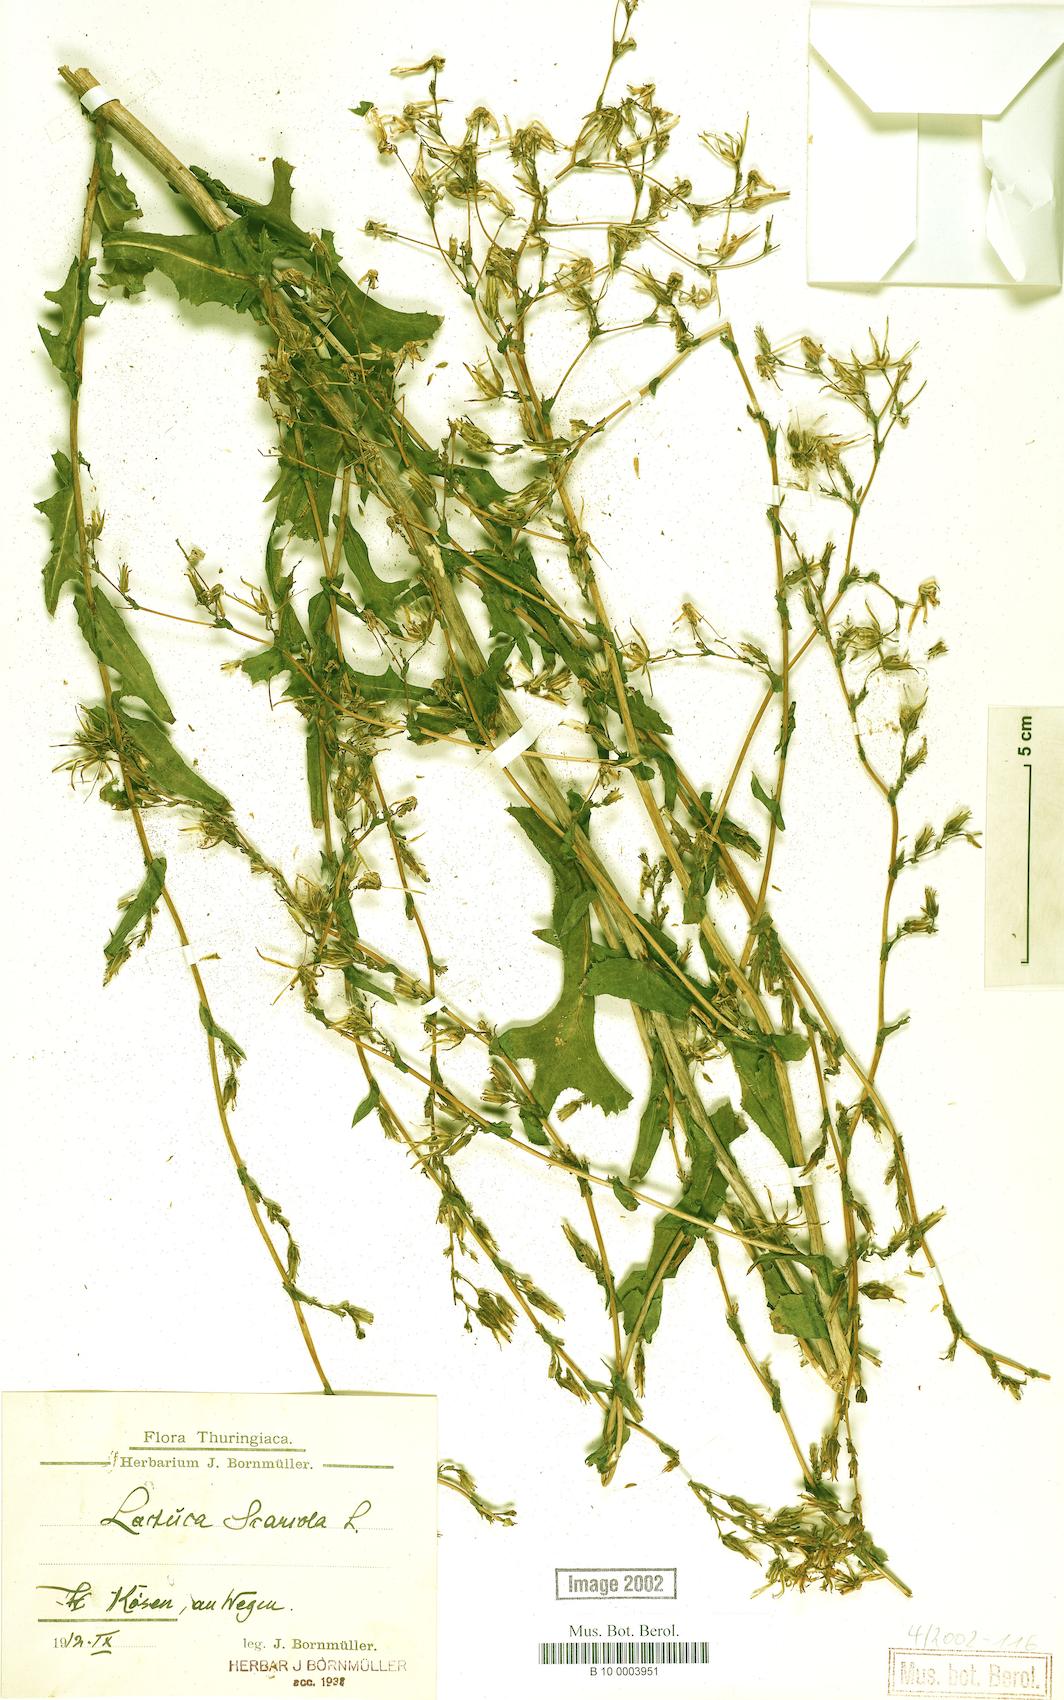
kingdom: Plantae
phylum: Tracheophyta
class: Magnoliopsida
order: Asterales
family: Asteraceae
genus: Lactuca
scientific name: Lactuca serriola
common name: Prickly lettuce
